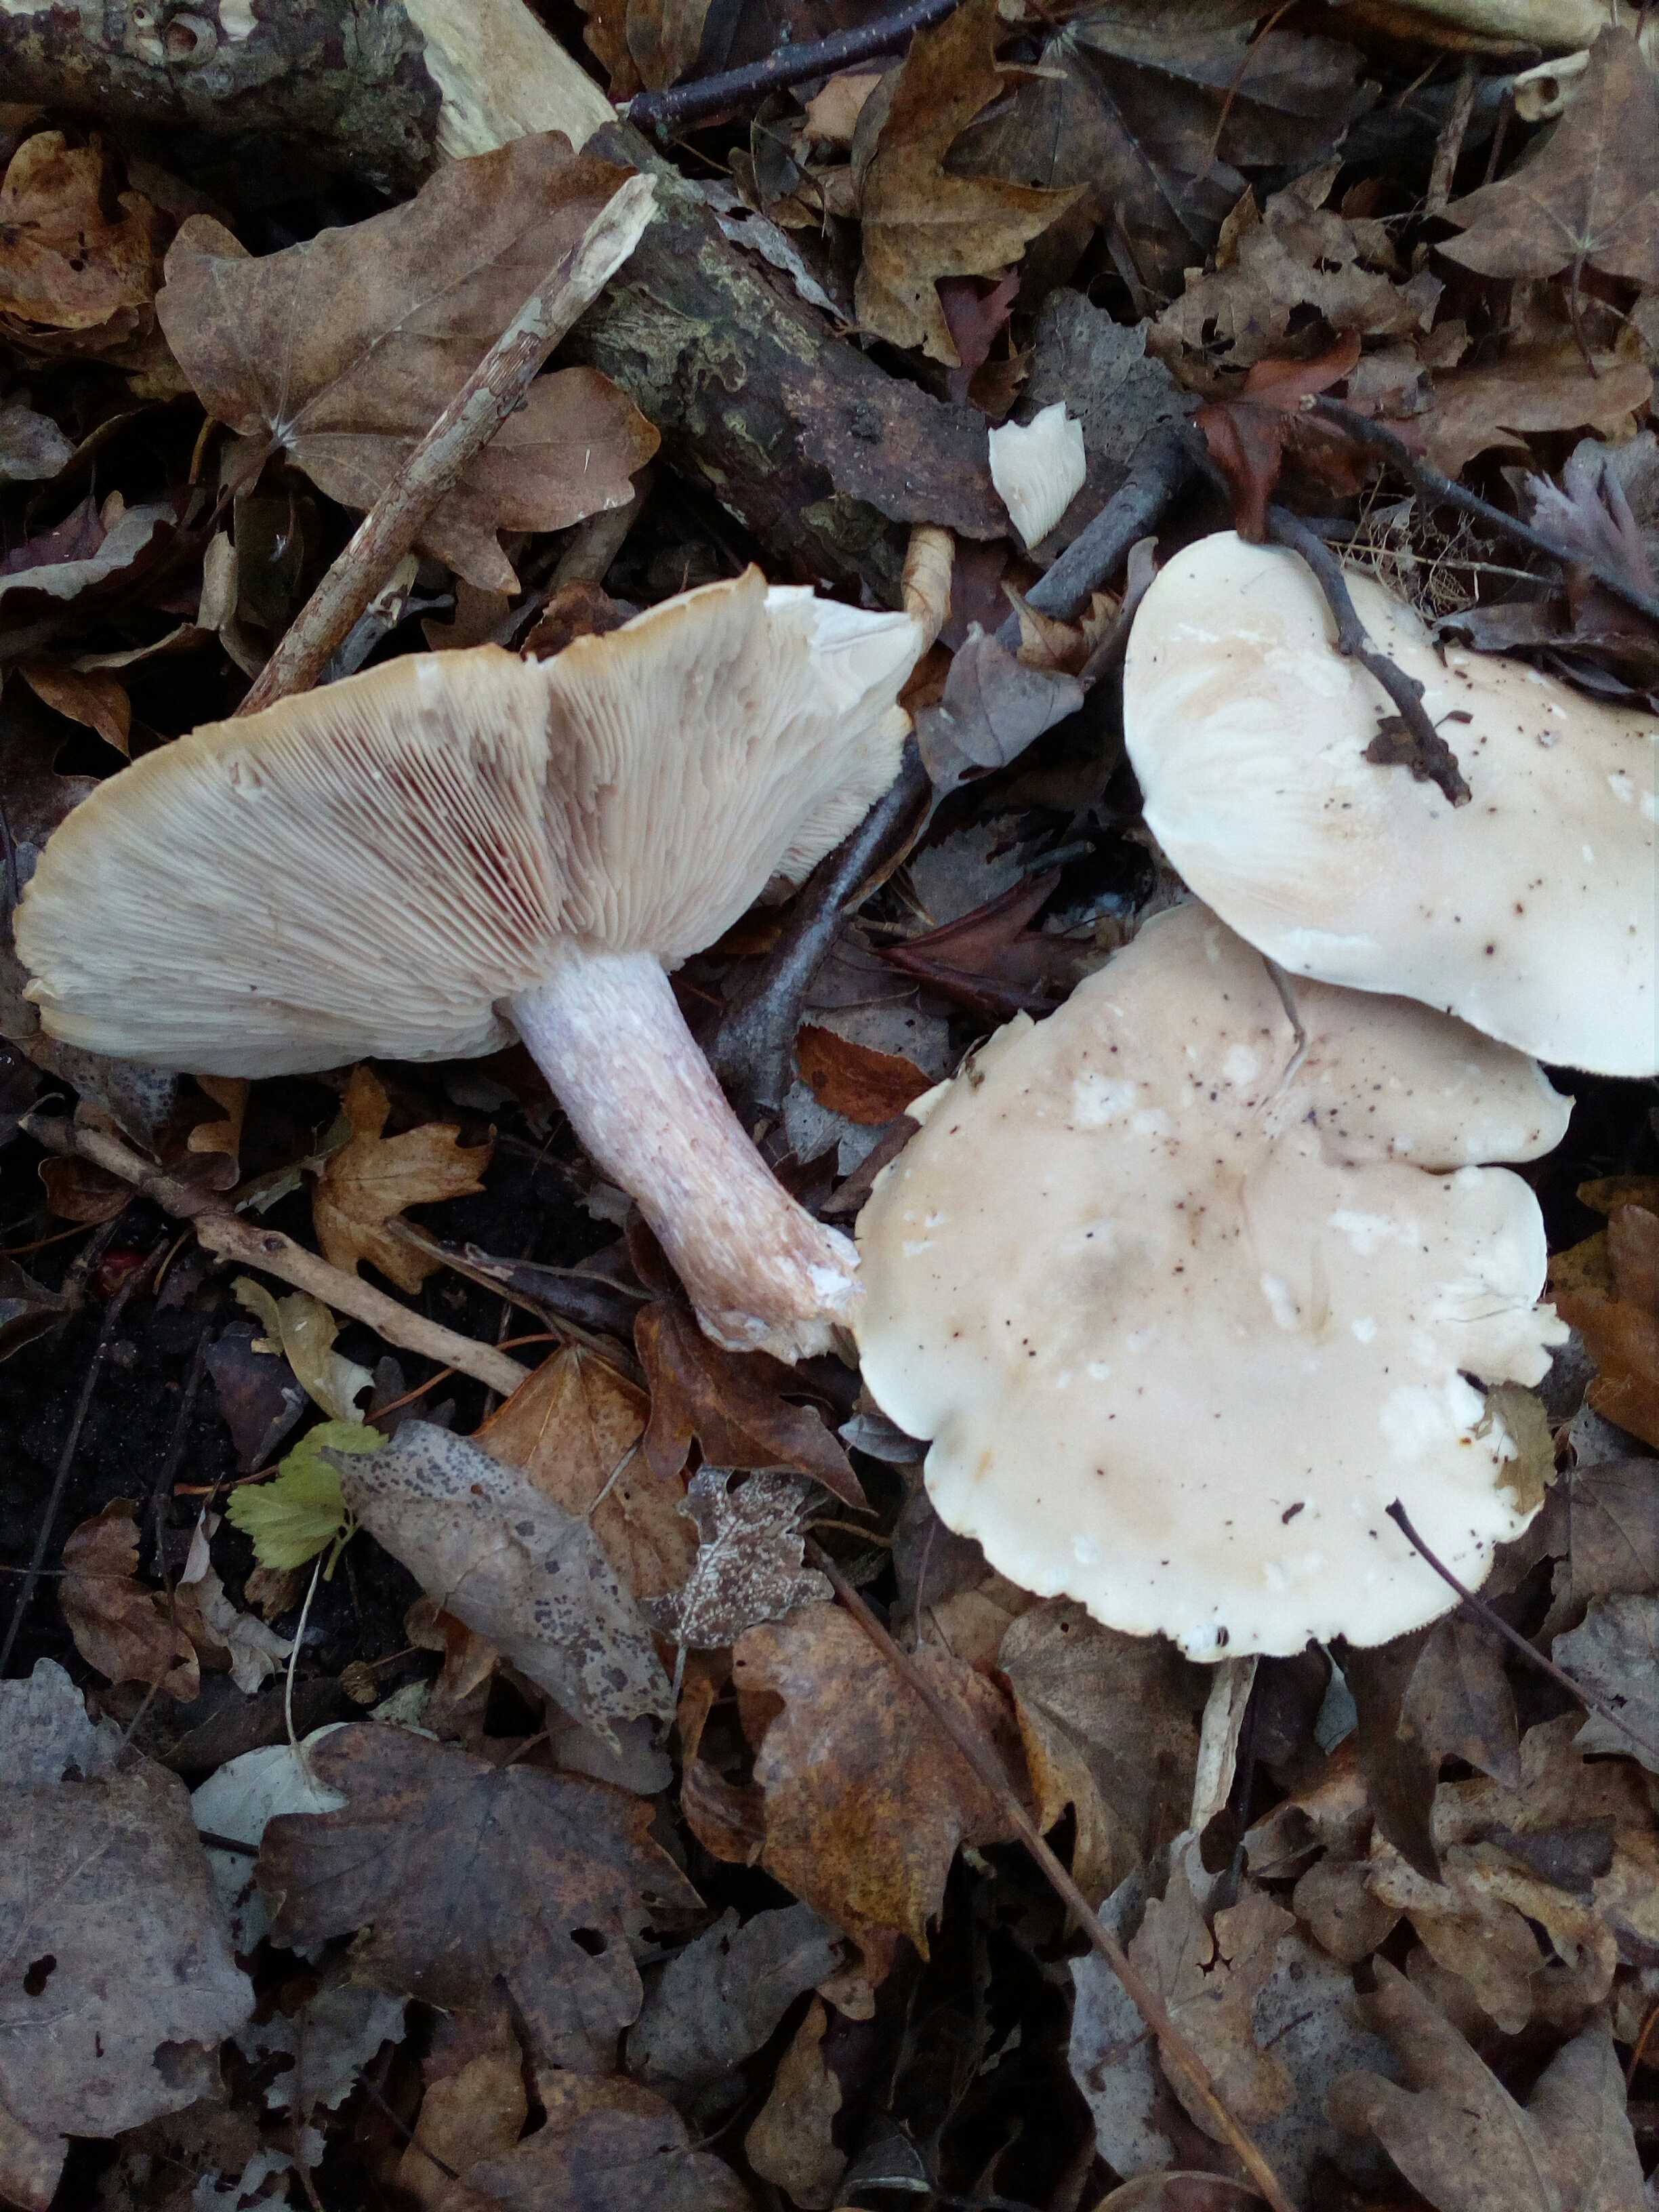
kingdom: Fungi
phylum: Basidiomycota
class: Agaricomycetes
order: Agaricales
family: Tricholomataceae
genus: Lepista
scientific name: Lepista personata
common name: bleg hekseringshat
